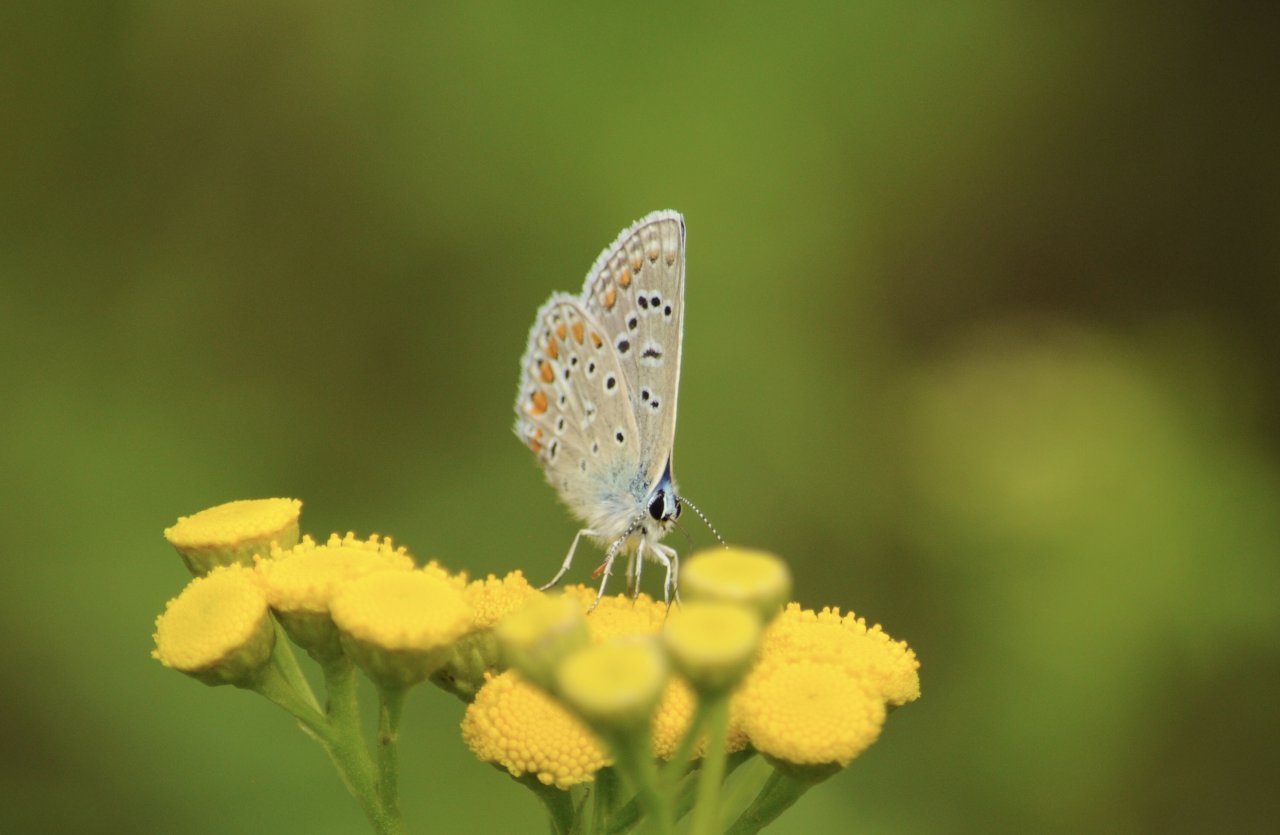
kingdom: Animalia
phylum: Arthropoda
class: Insecta
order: Lepidoptera
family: Lycaenidae
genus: Polyommatus
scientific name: Polyommatus icarus
